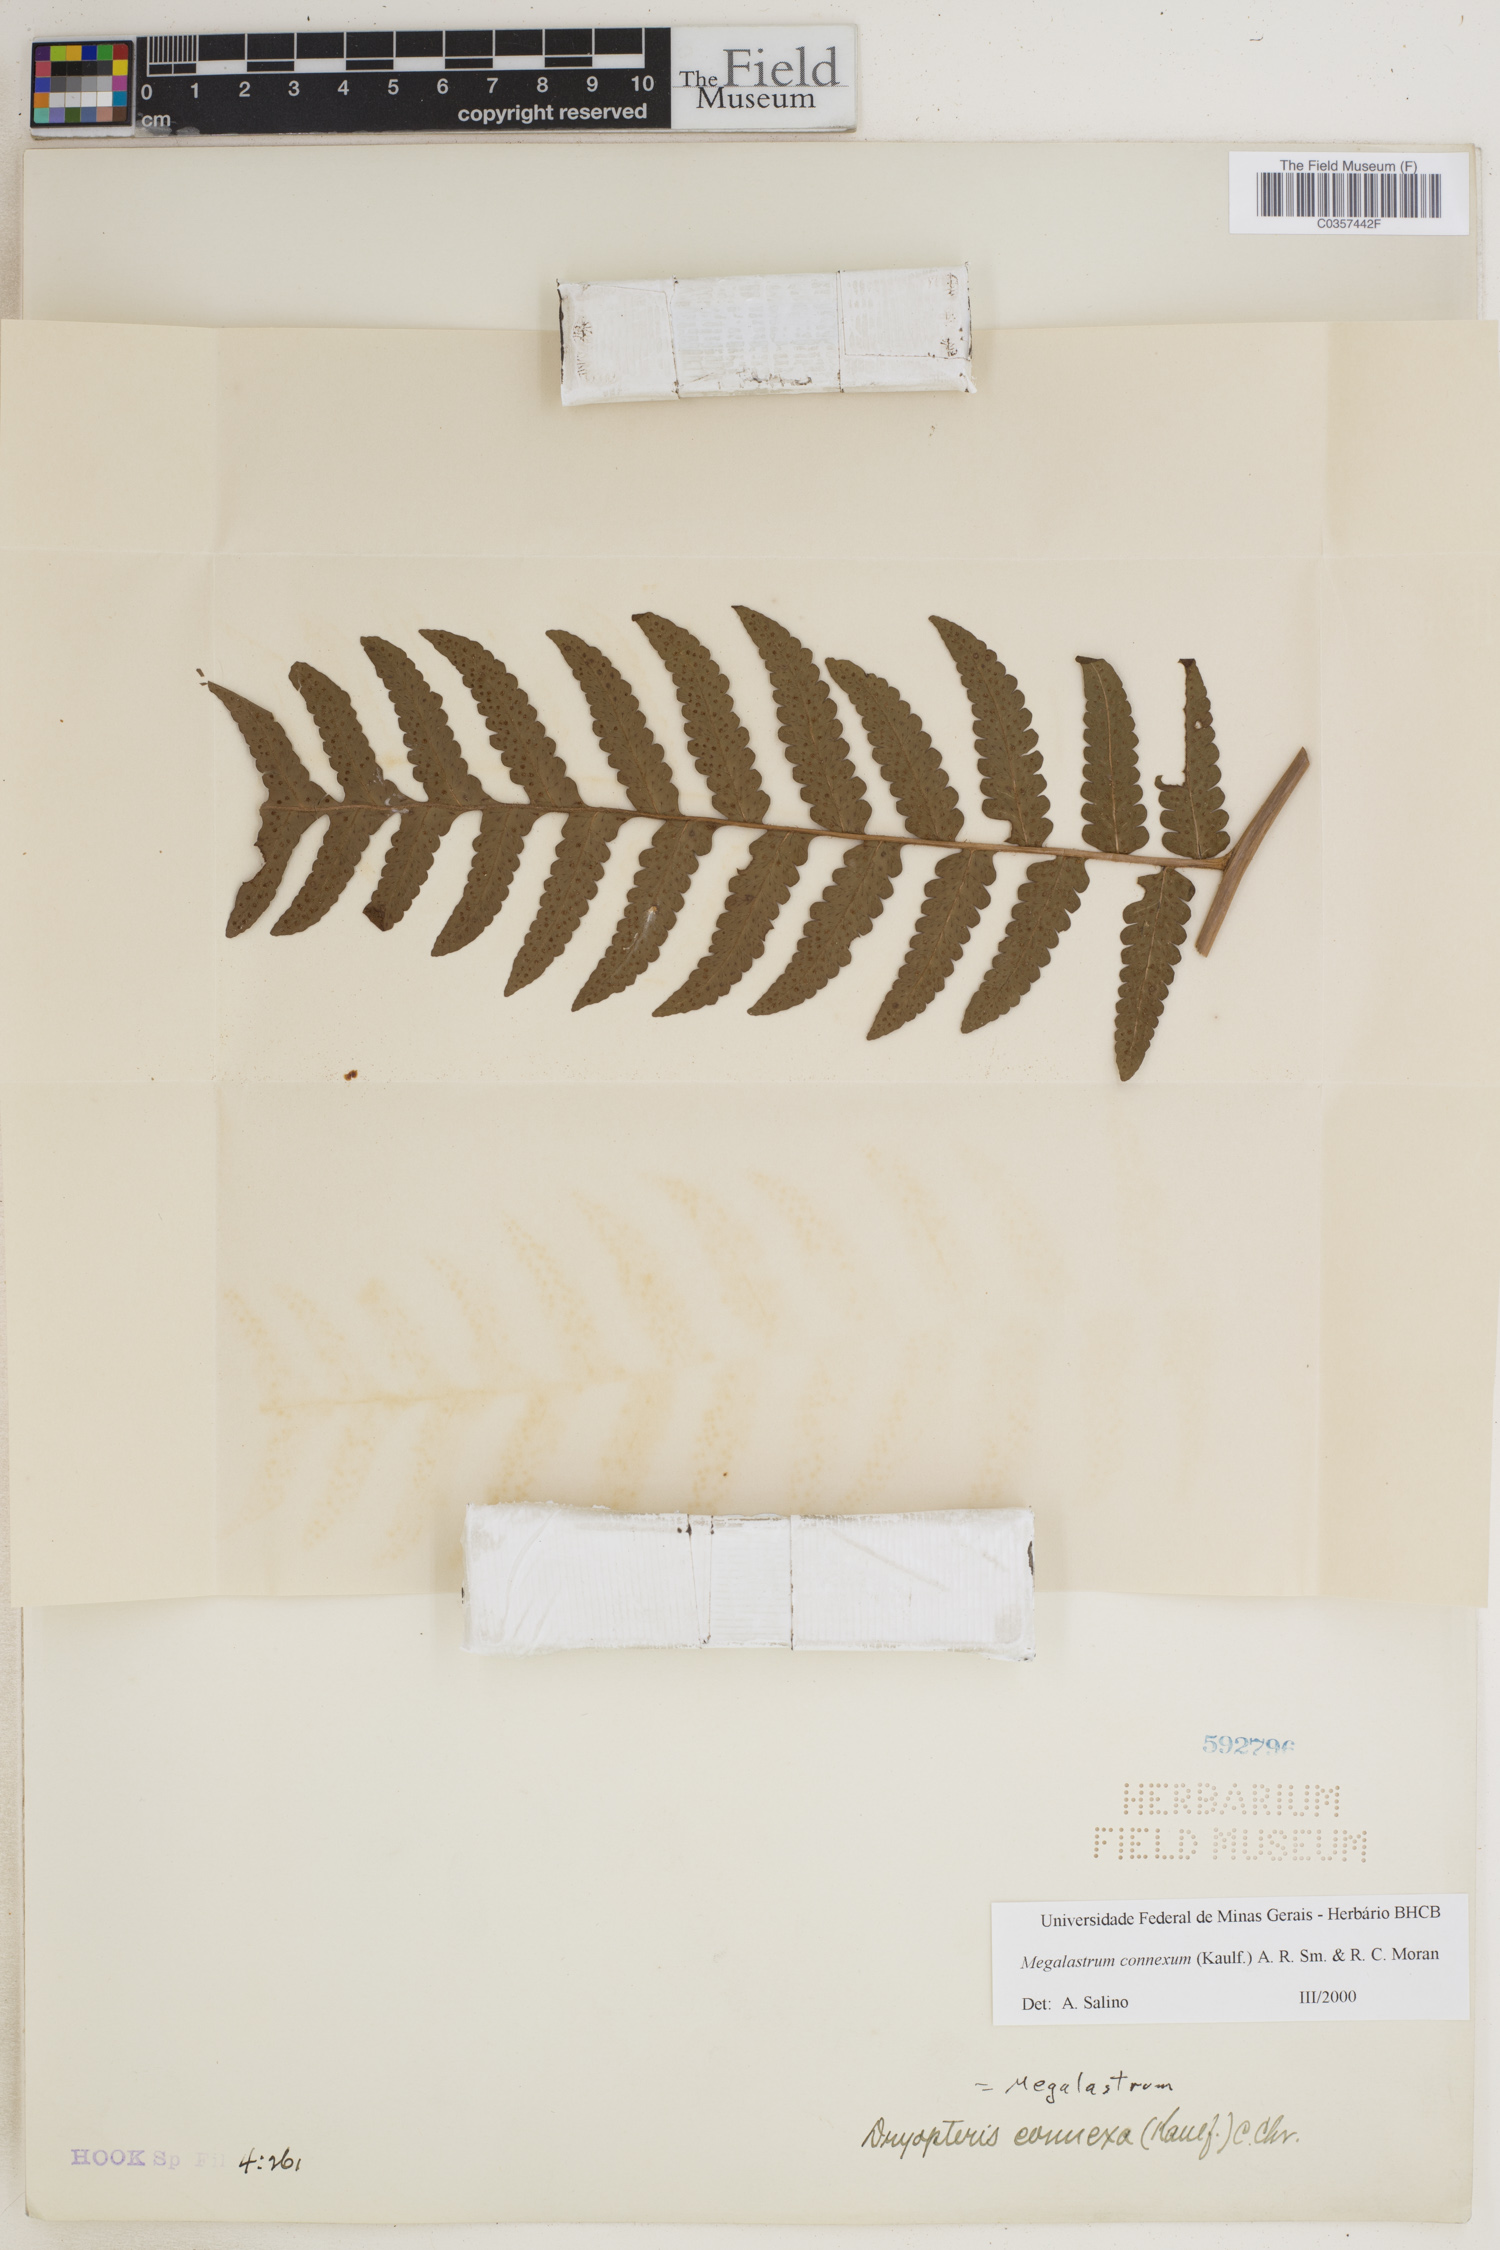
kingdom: Plantae
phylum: Tracheophyta
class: Polypodiopsida
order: Polypodiales
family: Dryopteridaceae
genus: Megalastrum
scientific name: Megalastrum connexum
